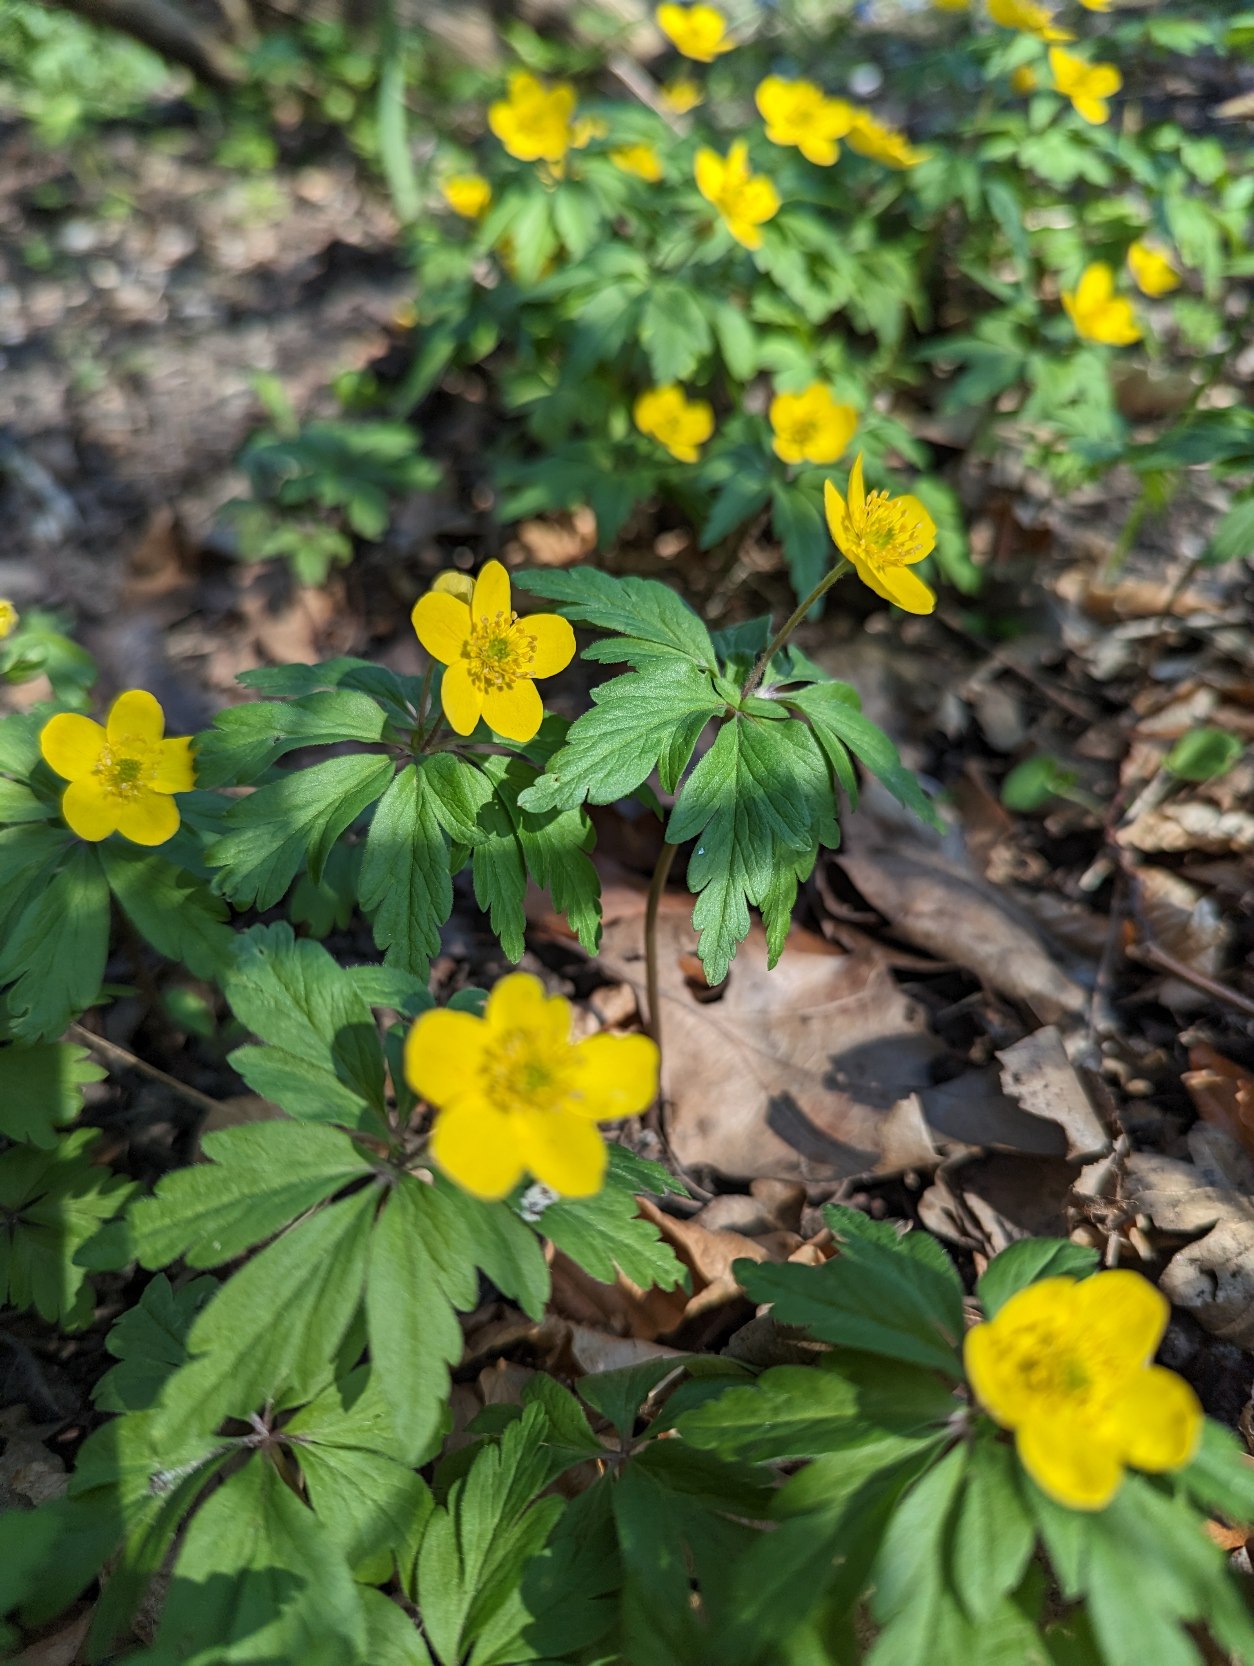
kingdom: Plantae
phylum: Tracheophyta
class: Magnoliopsida
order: Ranunculales
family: Ranunculaceae
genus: Anemone
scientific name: Anemone ranunculoides
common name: Gul anemone
